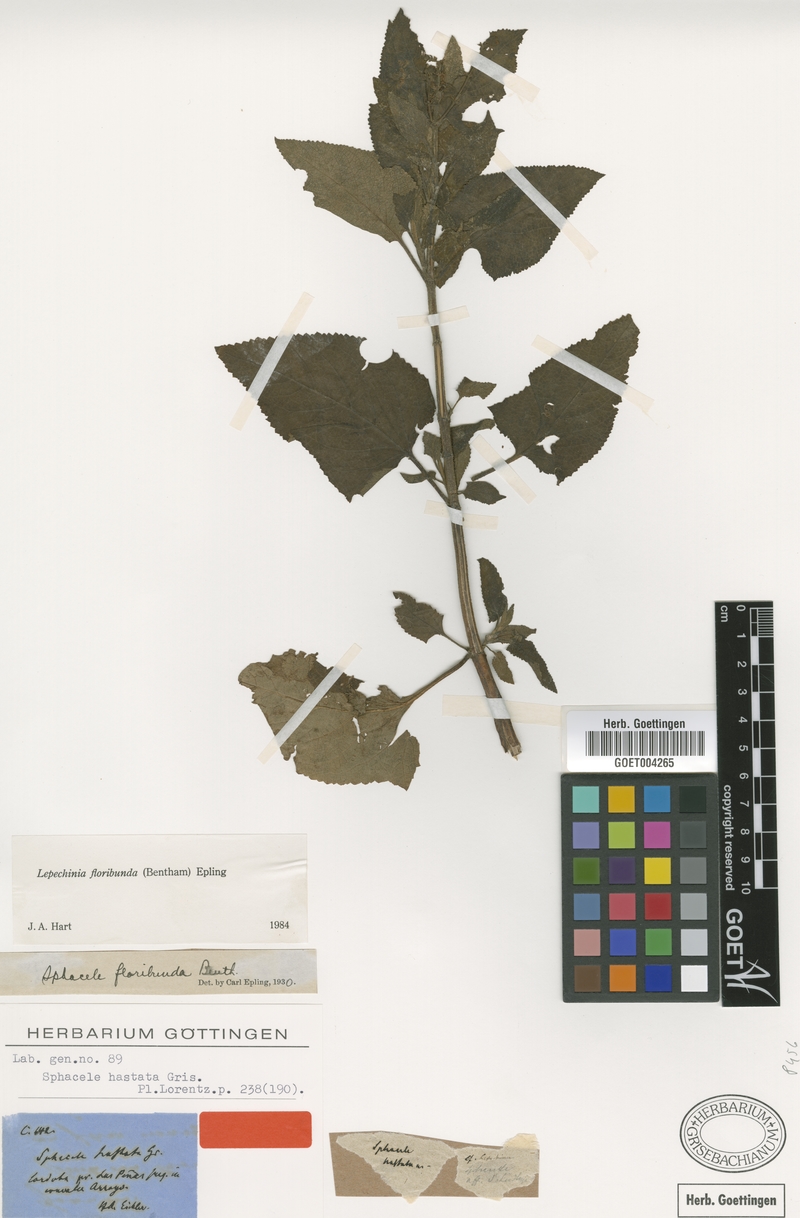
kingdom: Plantae
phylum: Tracheophyta
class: Magnoliopsida
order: Lamiales
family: Lamiaceae
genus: Lepechinia
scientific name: Lepechinia floribunda
